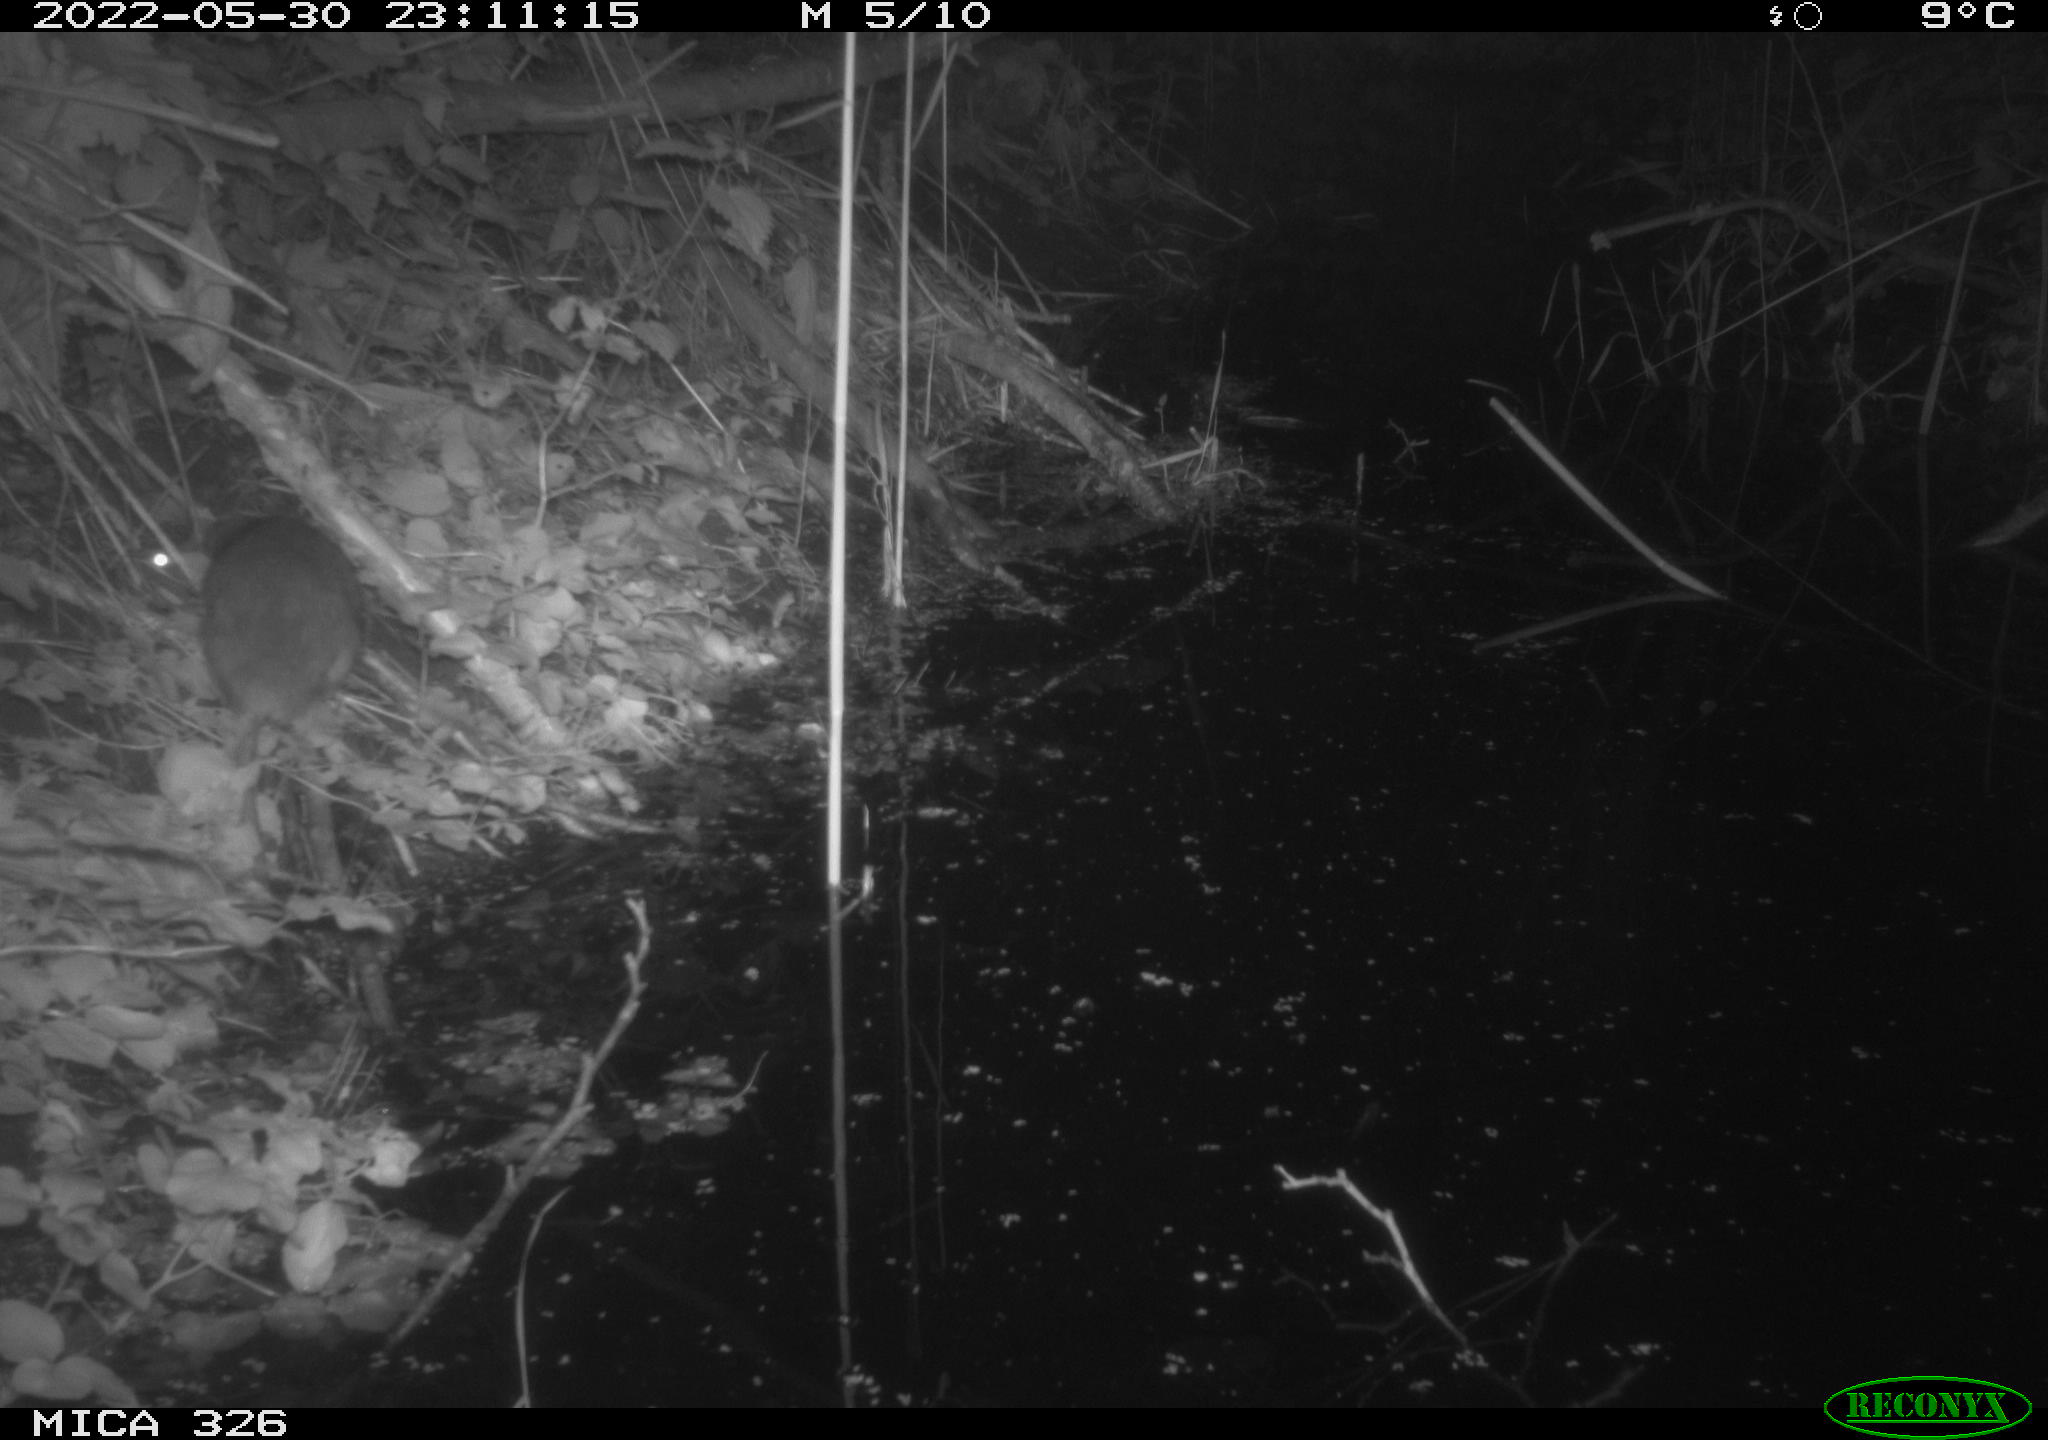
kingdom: Animalia
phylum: Chordata
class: Mammalia
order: Rodentia
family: Muridae
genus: Rattus
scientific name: Rattus norvegicus
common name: Brown rat
